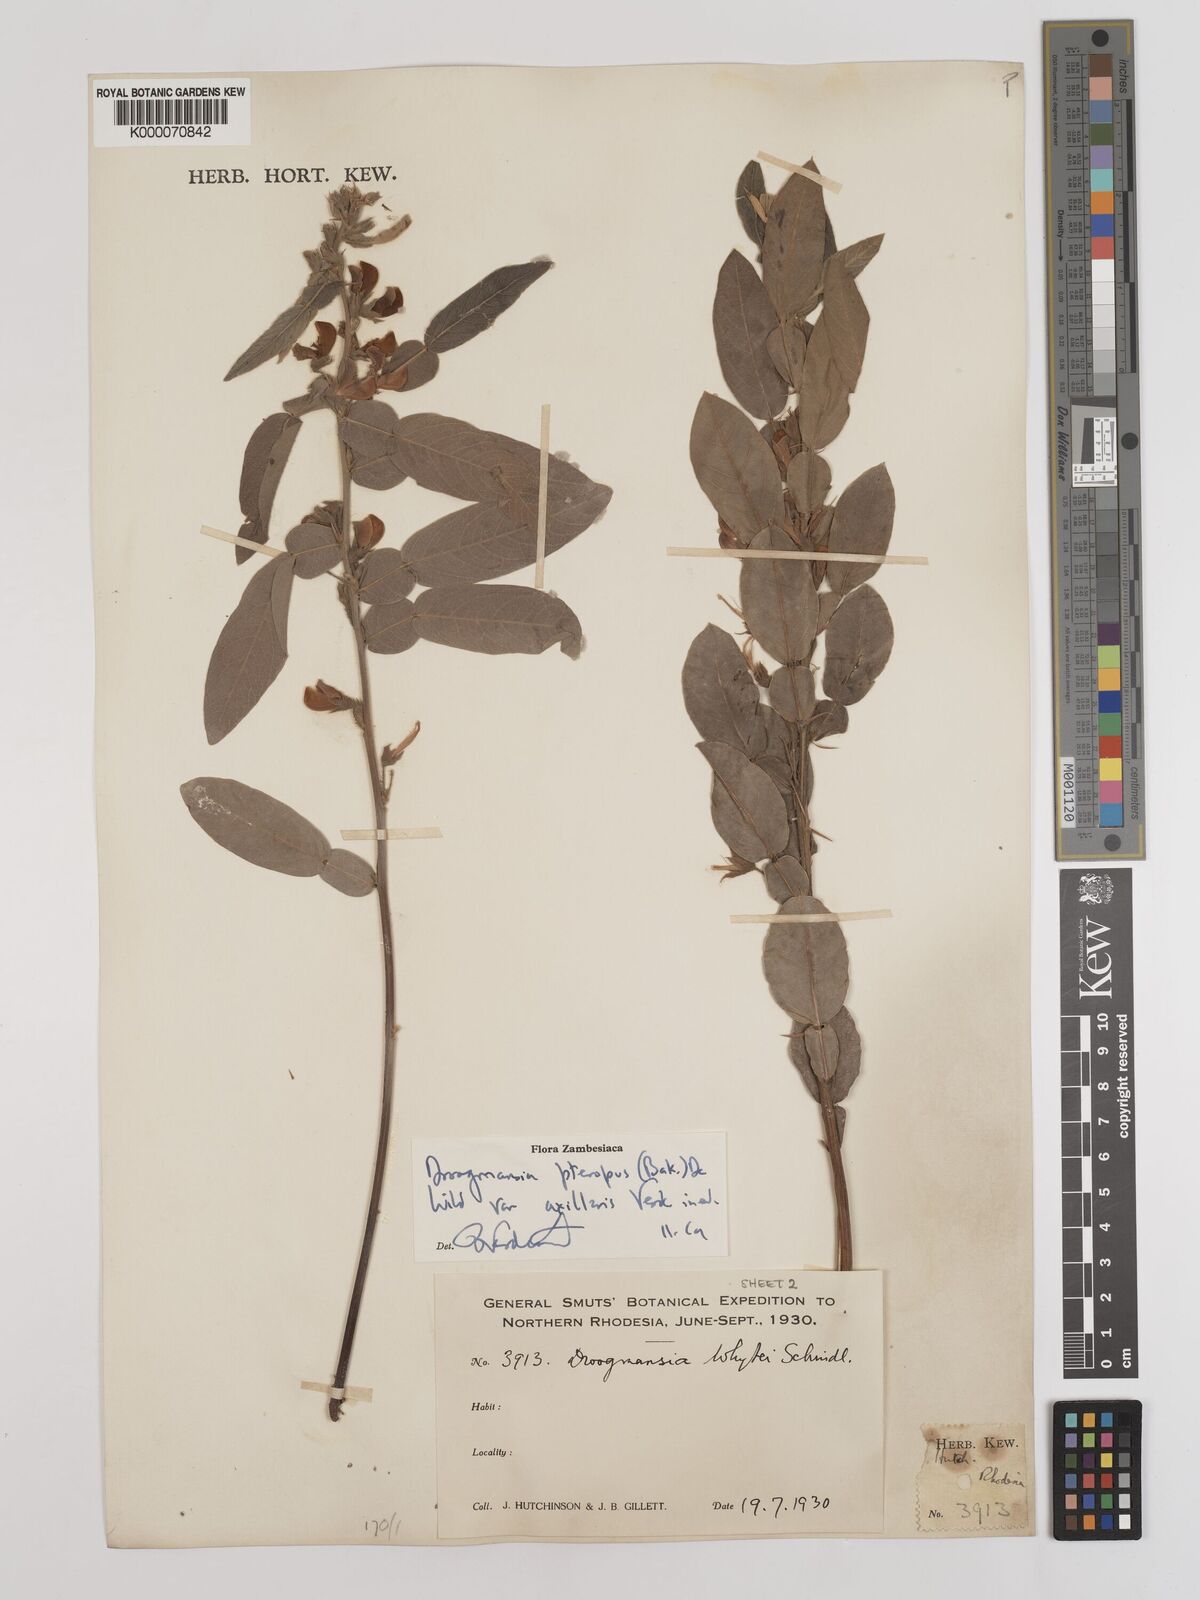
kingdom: Plantae
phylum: Tracheophyta
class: Magnoliopsida
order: Fabales
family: Fabaceae
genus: Droogmansia
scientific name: Droogmansia pteropus
